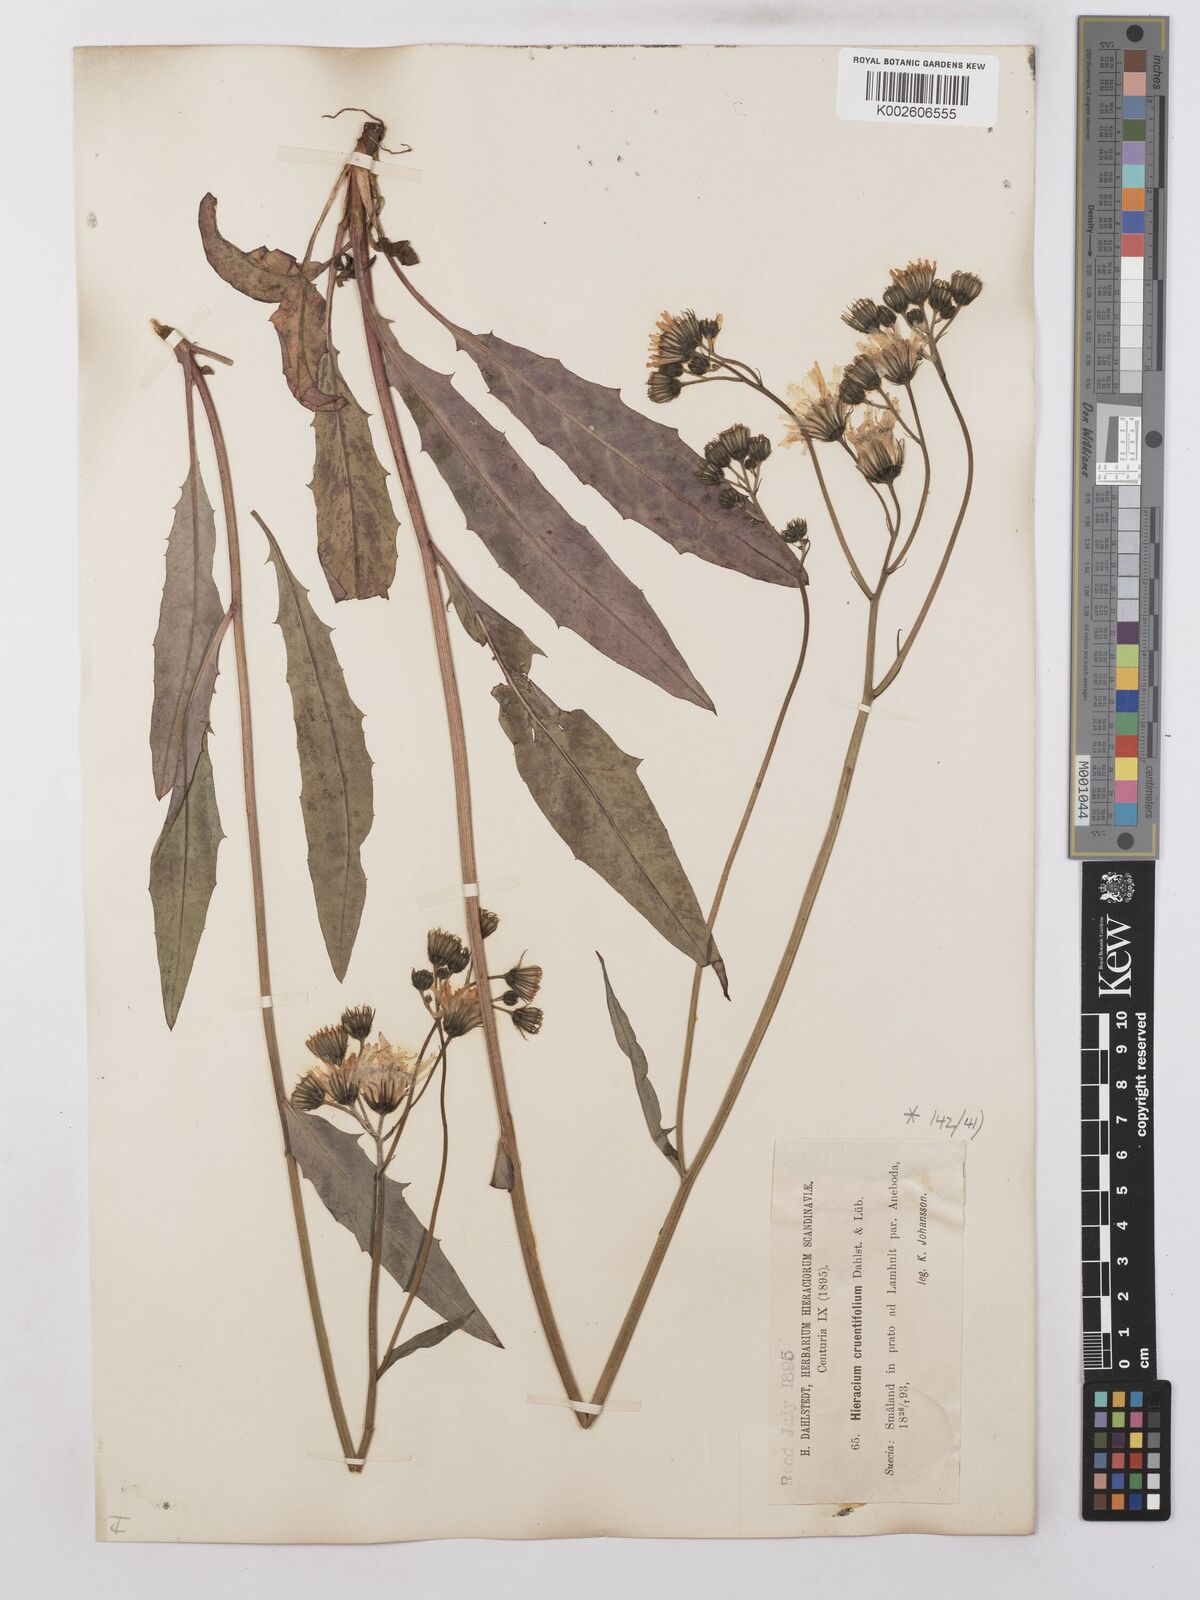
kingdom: Plantae
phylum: Tracheophyta
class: Magnoliopsida
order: Asterales
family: Asteraceae
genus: Hieracium
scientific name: Hieracium lachenalii
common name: Common hawkweed
